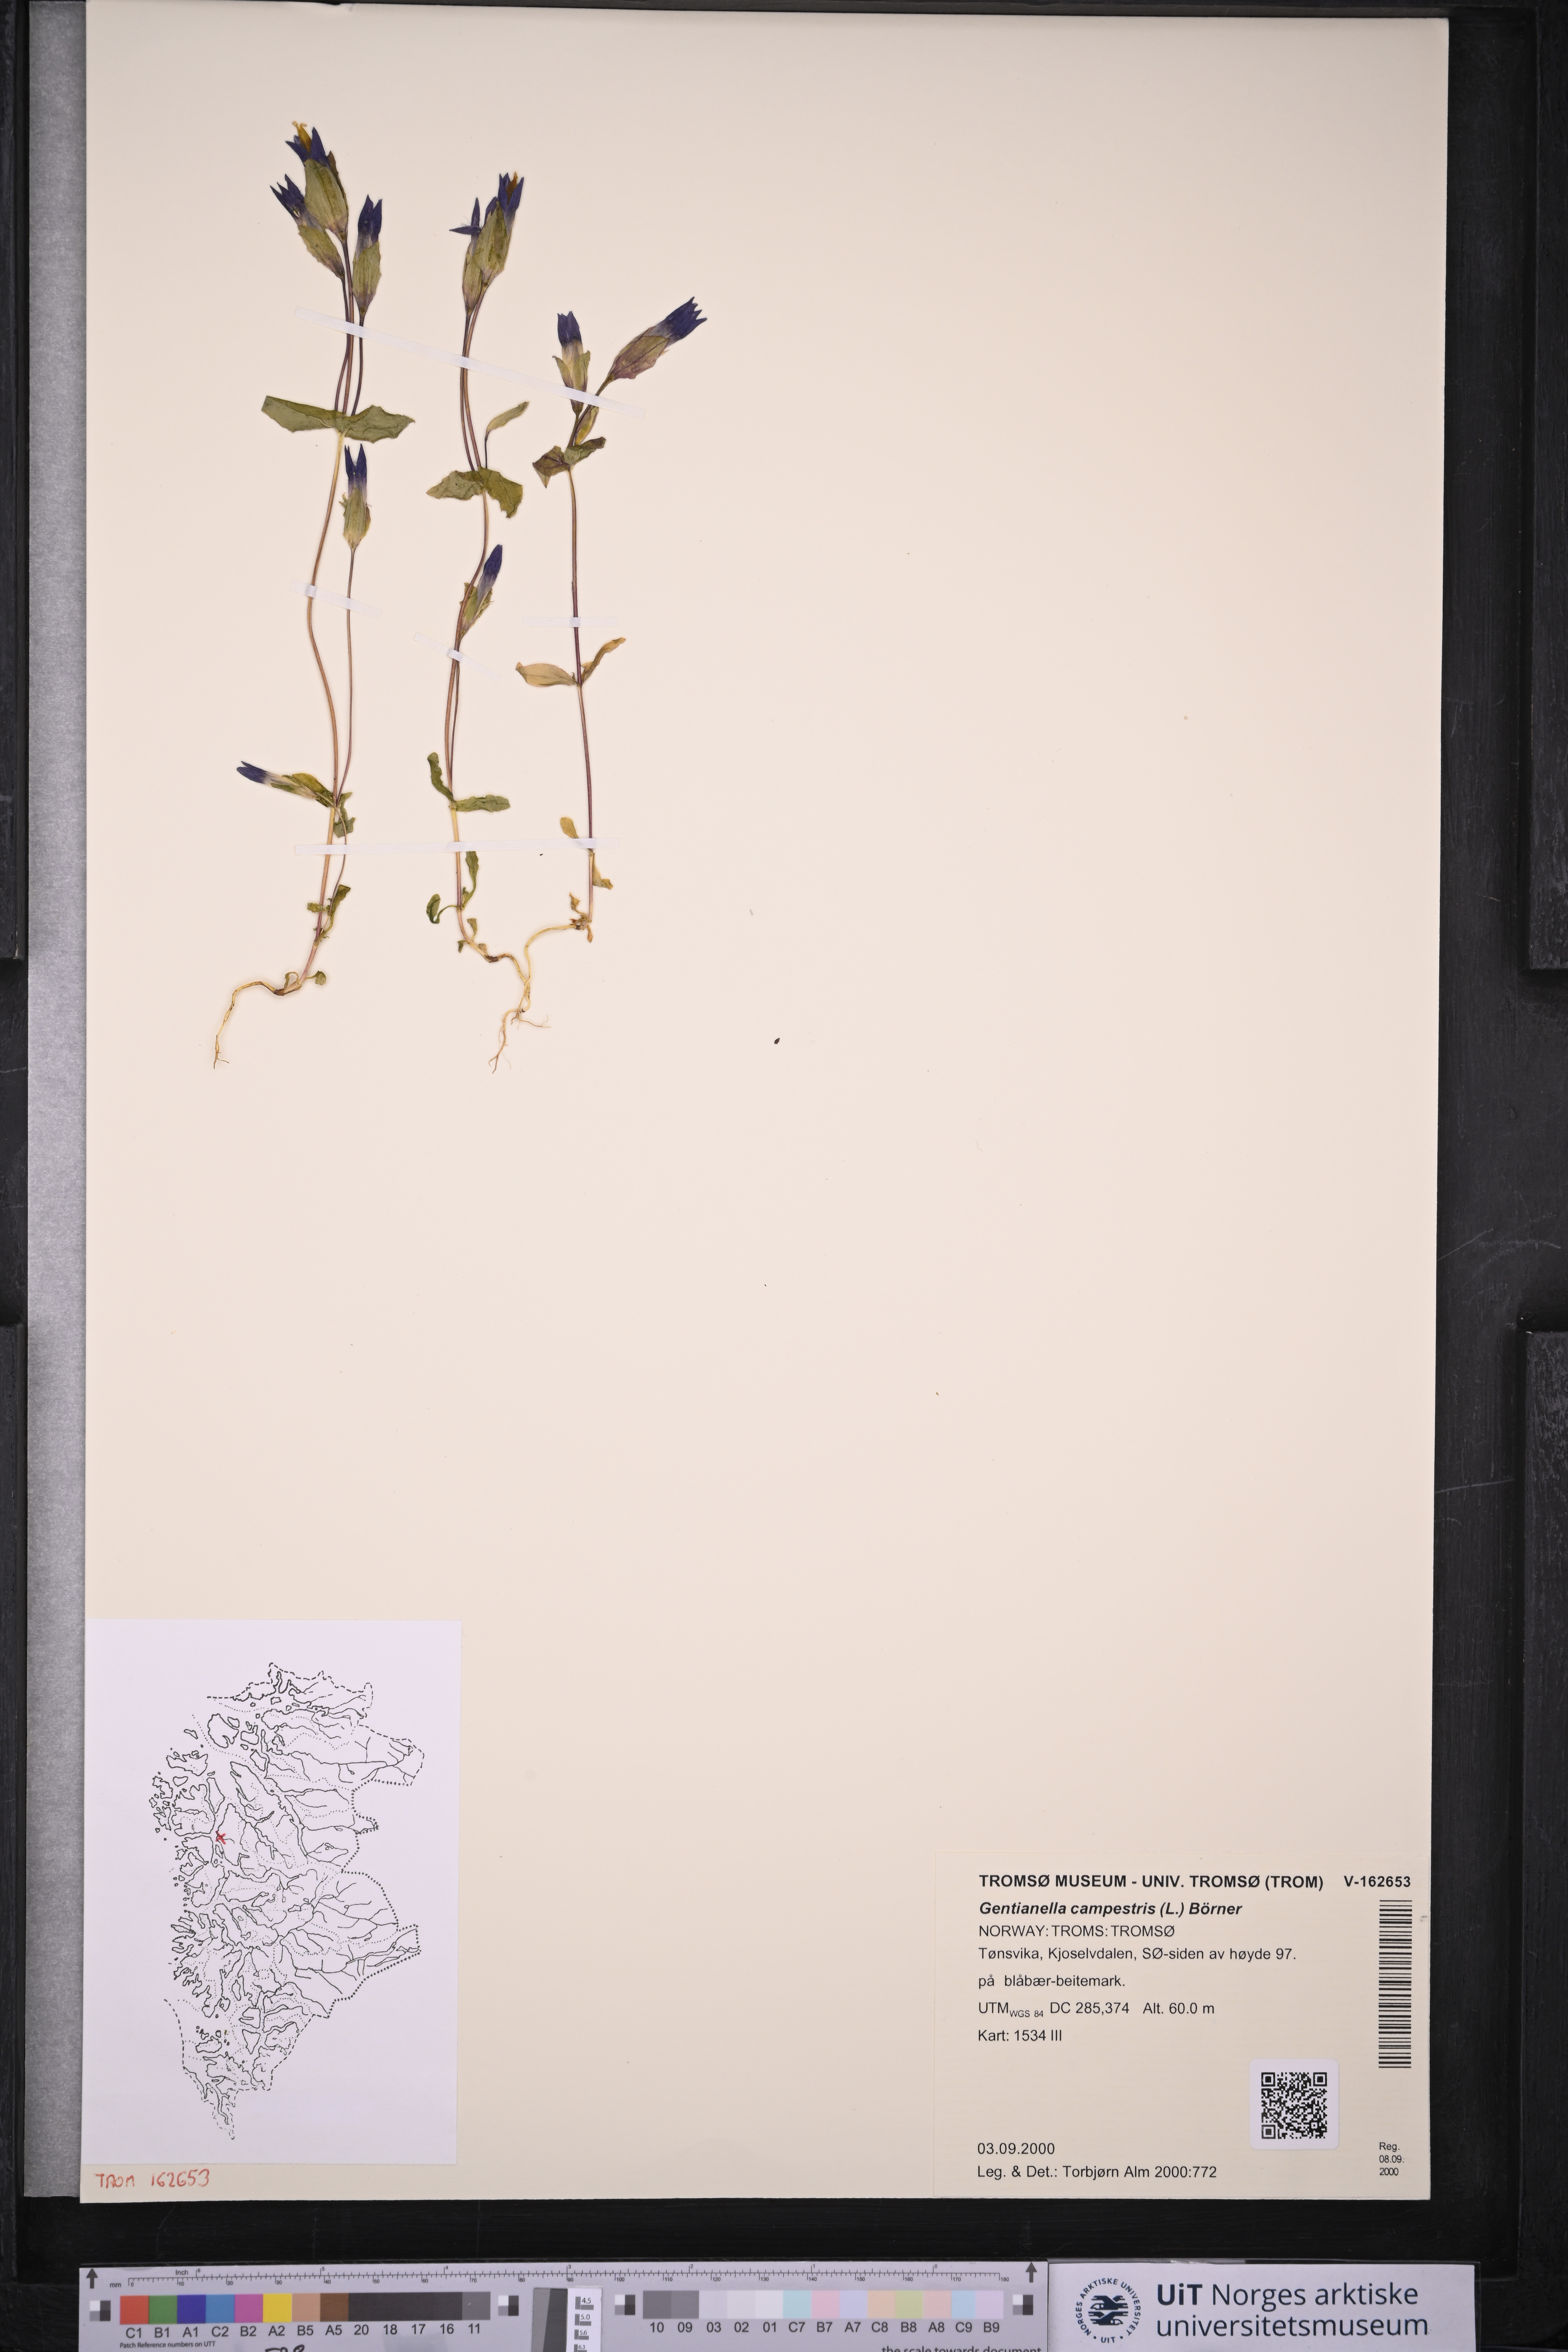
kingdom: Plantae
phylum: Tracheophyta
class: Magnoliopsida
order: Gentianales
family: Gentianaceae
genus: Gentianella
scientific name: Gentianella campestris
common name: Field gentian
